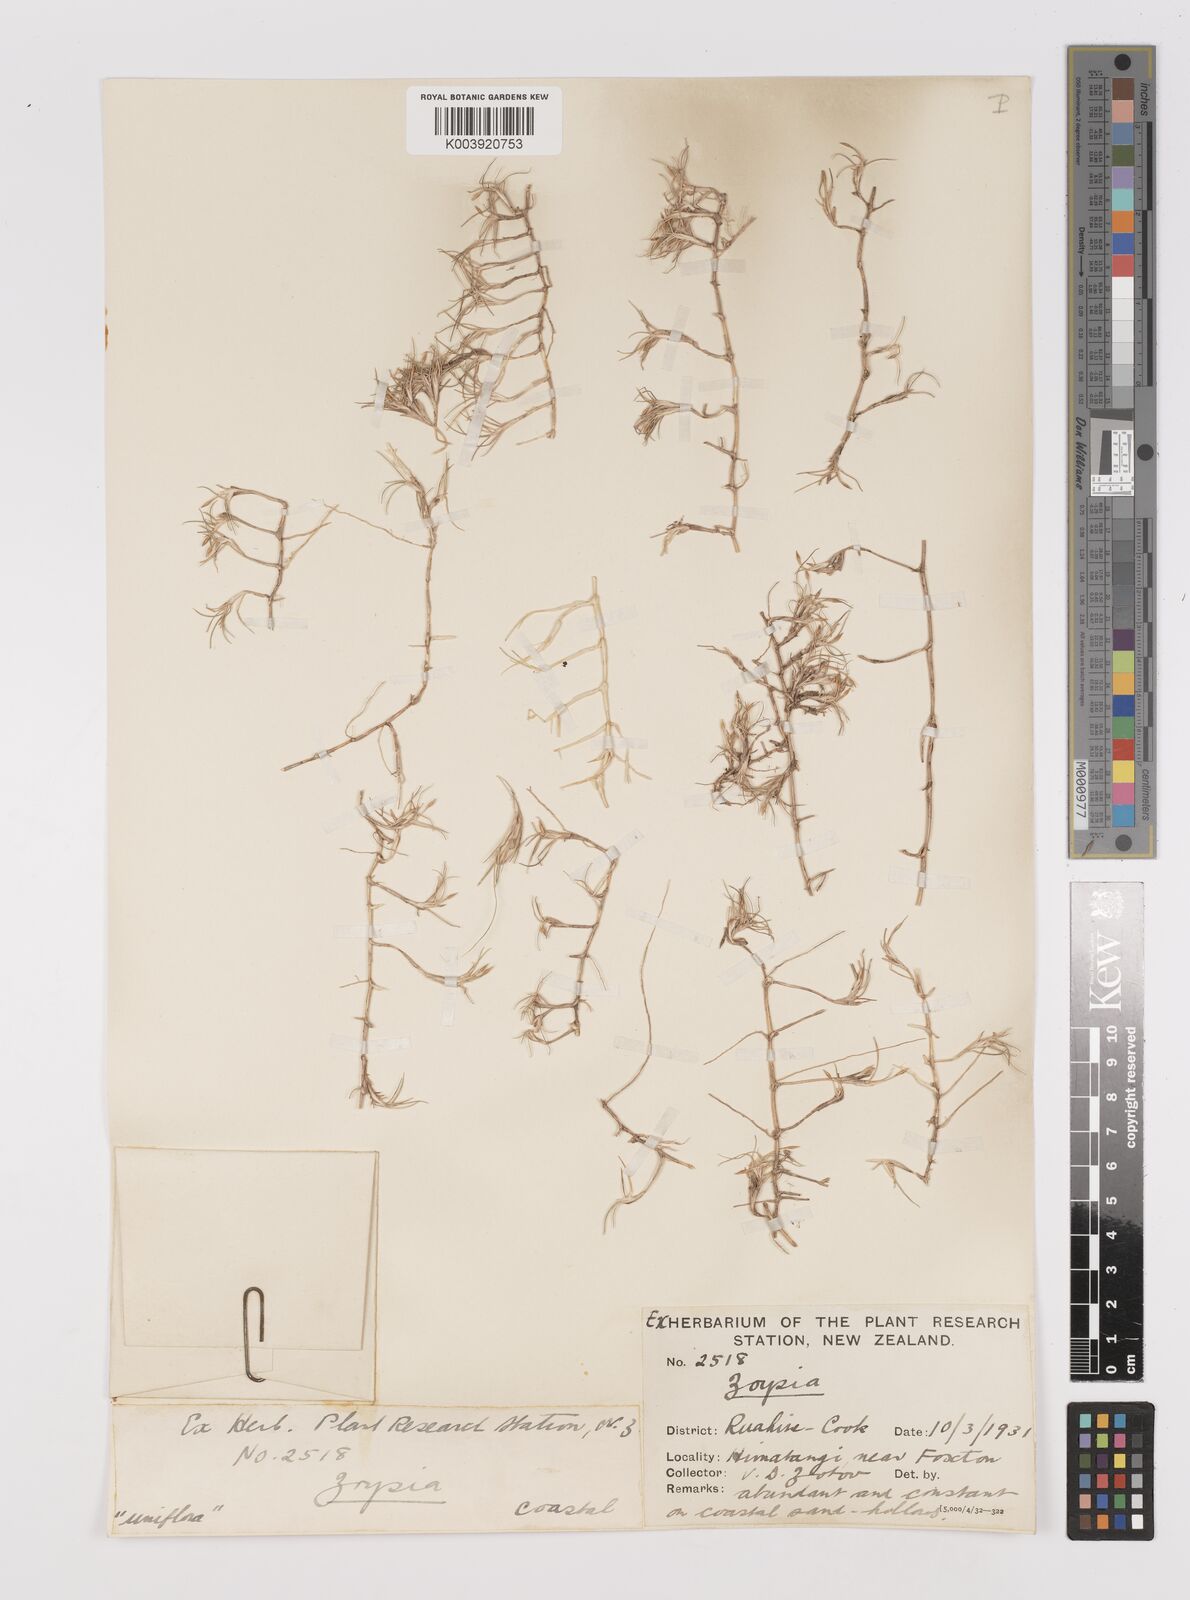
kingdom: Plantae
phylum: Tracheophyta
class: Liliopsida
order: Poales
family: Poaceae
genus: Zoysia
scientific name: Zoysia minima
